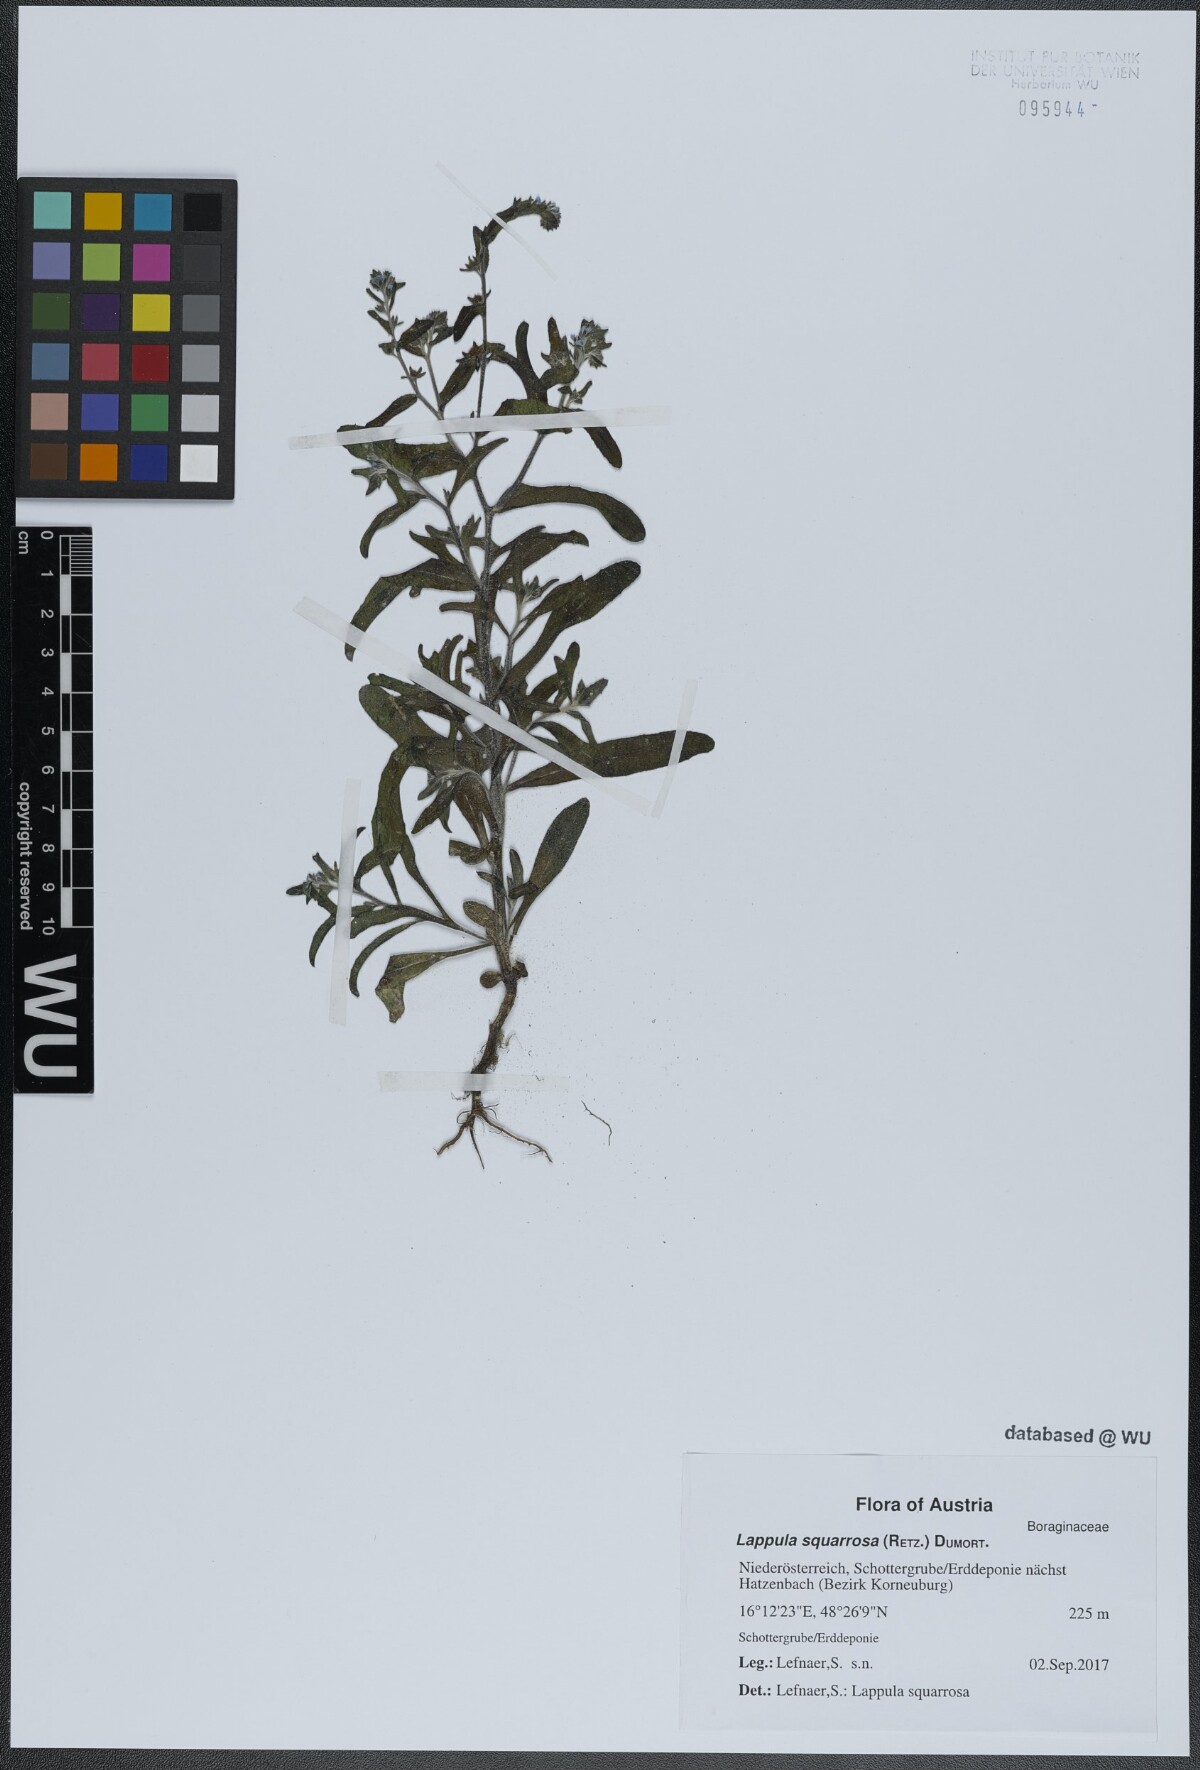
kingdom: Plantae
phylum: Tracheophyta
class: Magnoliopsida
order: Boraginales
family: Boraginaceae
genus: Lappula
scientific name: Lappula squarrosa
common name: European stickseed
